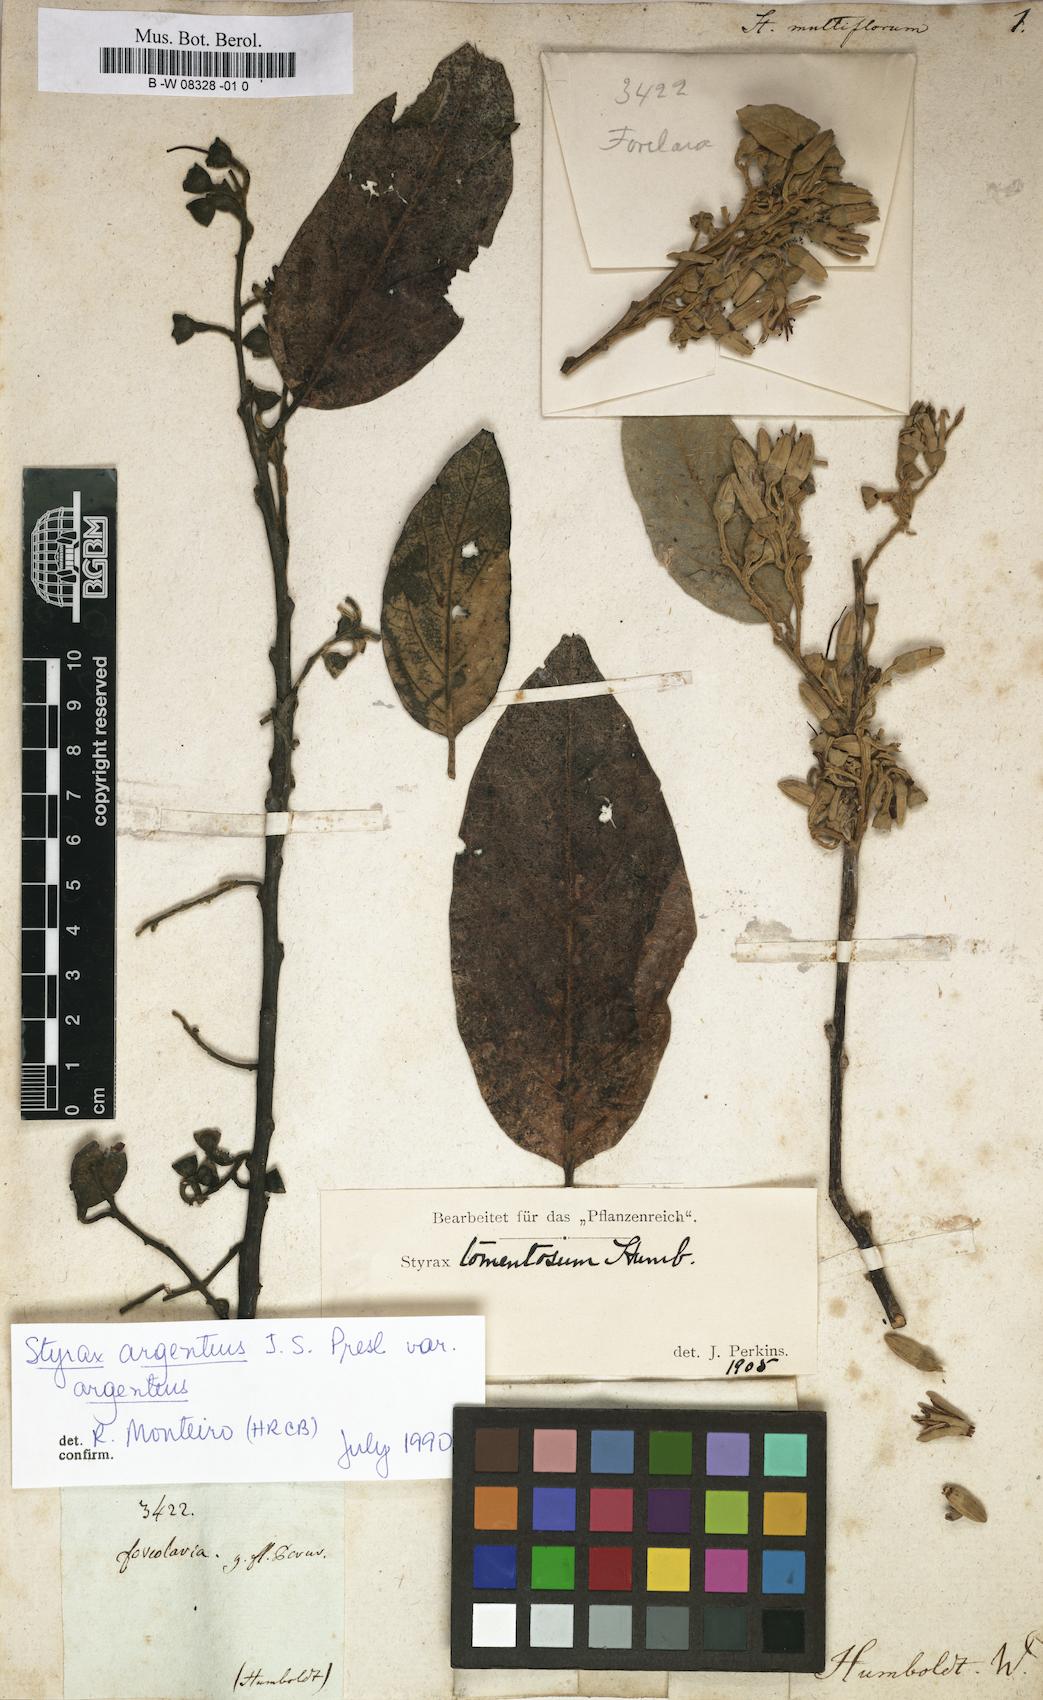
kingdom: Plantae
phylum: Tracheophyta
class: Magnoliopsida
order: Ericales
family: Styracaceae
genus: Styrax
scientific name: Styrax
